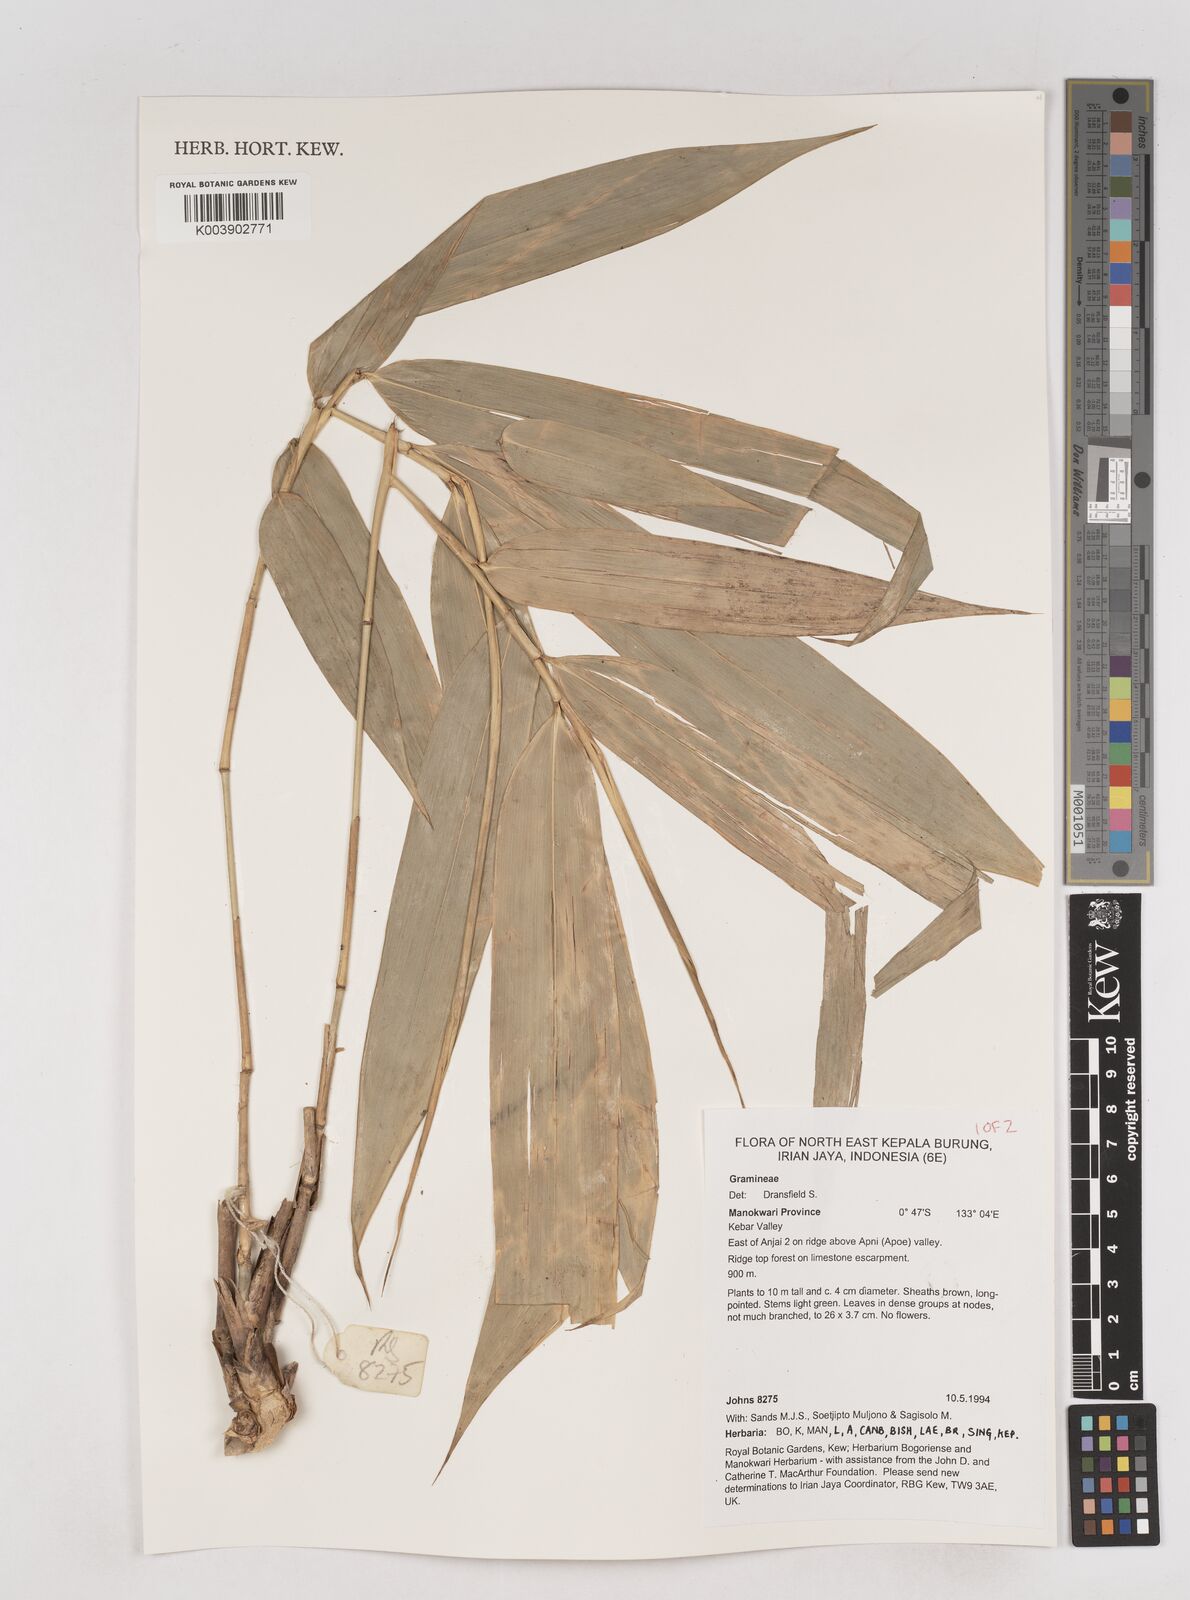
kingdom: Plantae
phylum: Tracheophyta
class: Liliopsida
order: Poales
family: Poaceae
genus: Schizostachyum
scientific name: Schizostachyum
